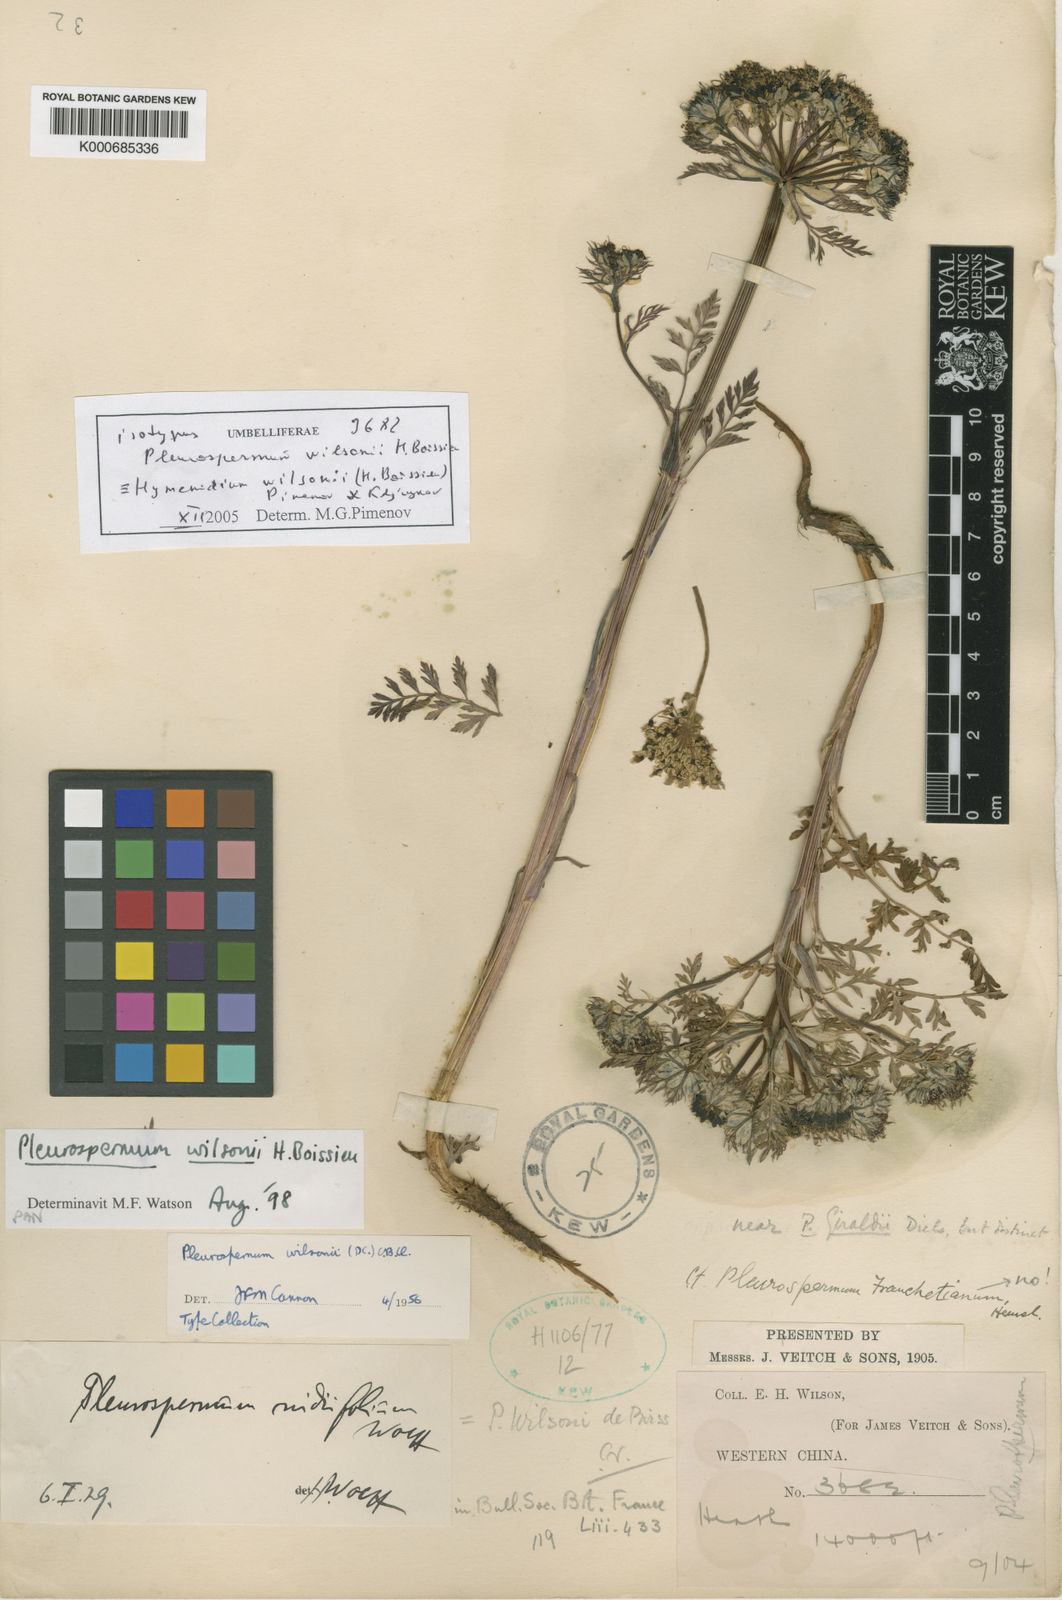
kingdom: Plantae
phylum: Tracheophyta
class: Magnoliopsida
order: Apiales
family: Apiaceae
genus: Hymenidium
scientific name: Hymenidium wilsonii
